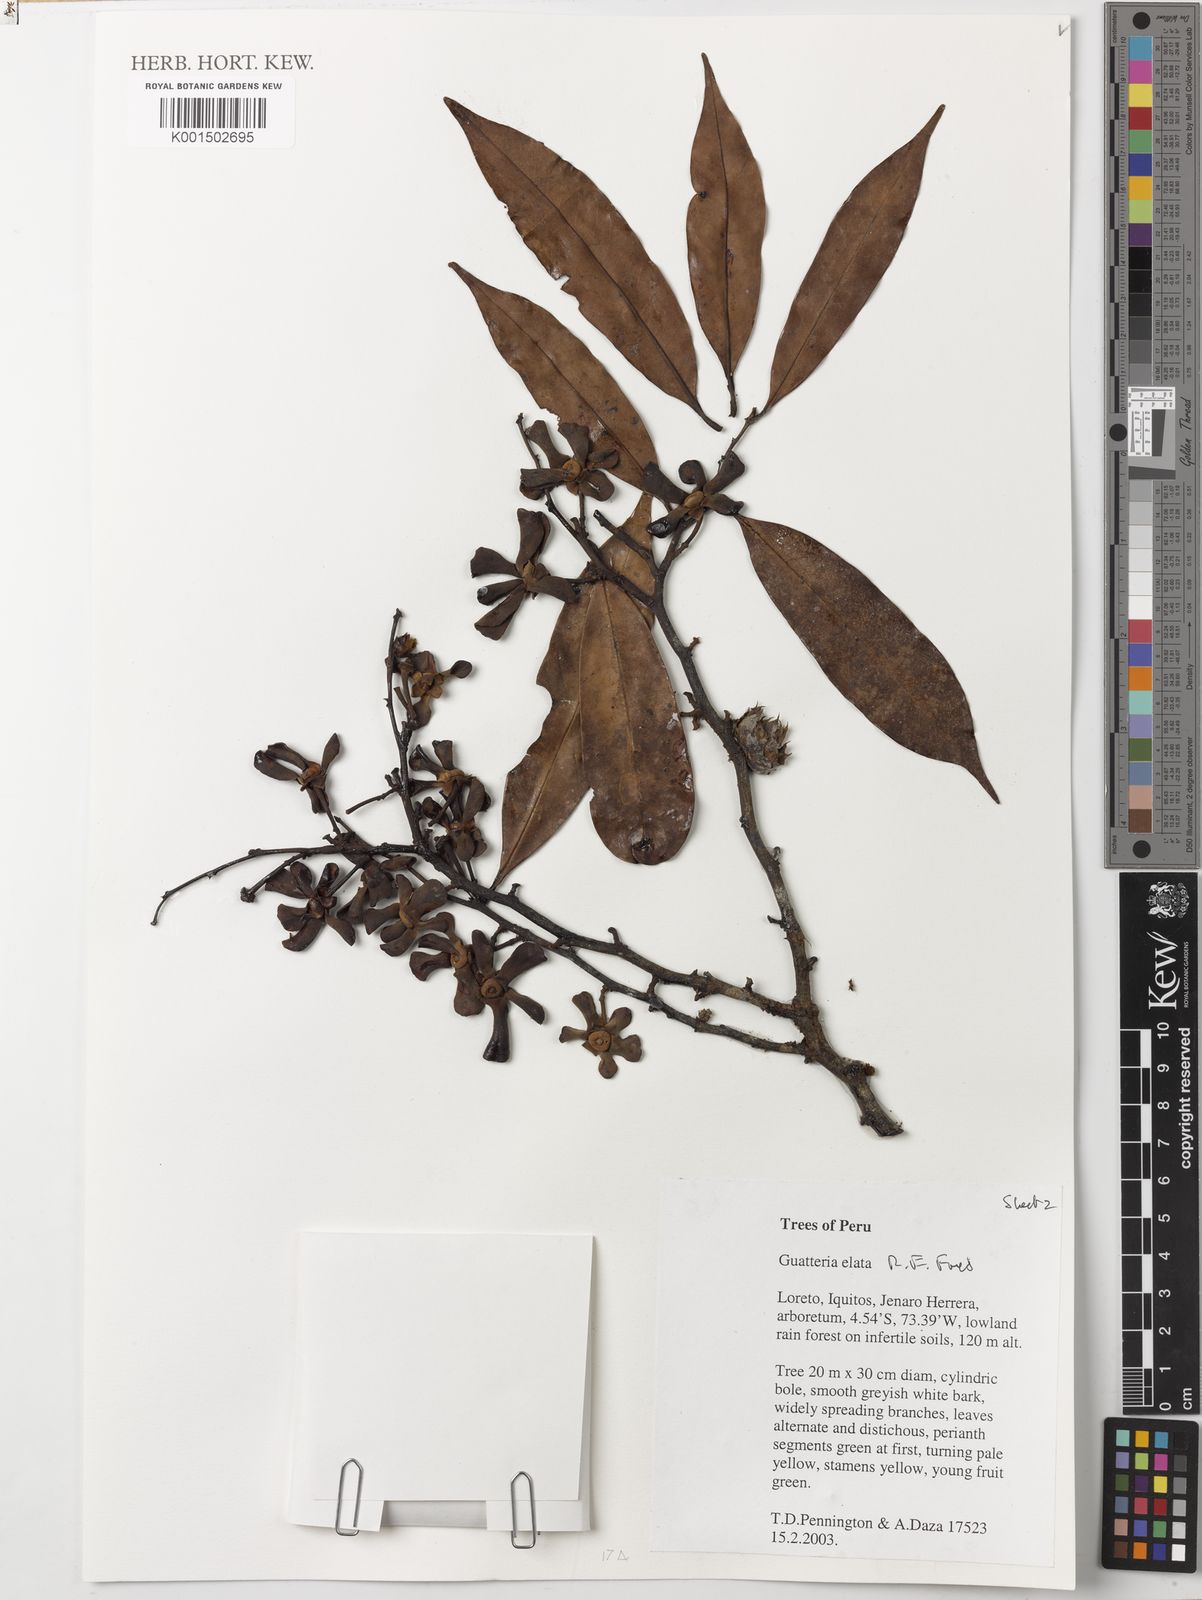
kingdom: Plantae
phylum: Tracheophyta
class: Magnoliopsida
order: Magnoliales
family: Annonaceae
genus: Guatteria
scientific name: Guatteria elata
